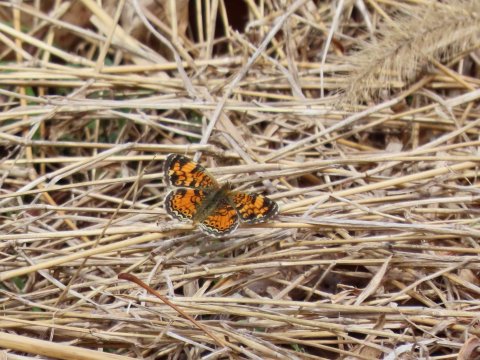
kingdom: Animalia
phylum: Arthropoda
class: Insecta
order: Lepidoptera
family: Nymphalidae
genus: Phyciodes
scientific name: Phyciodes tharos
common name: Pearl Crescent
